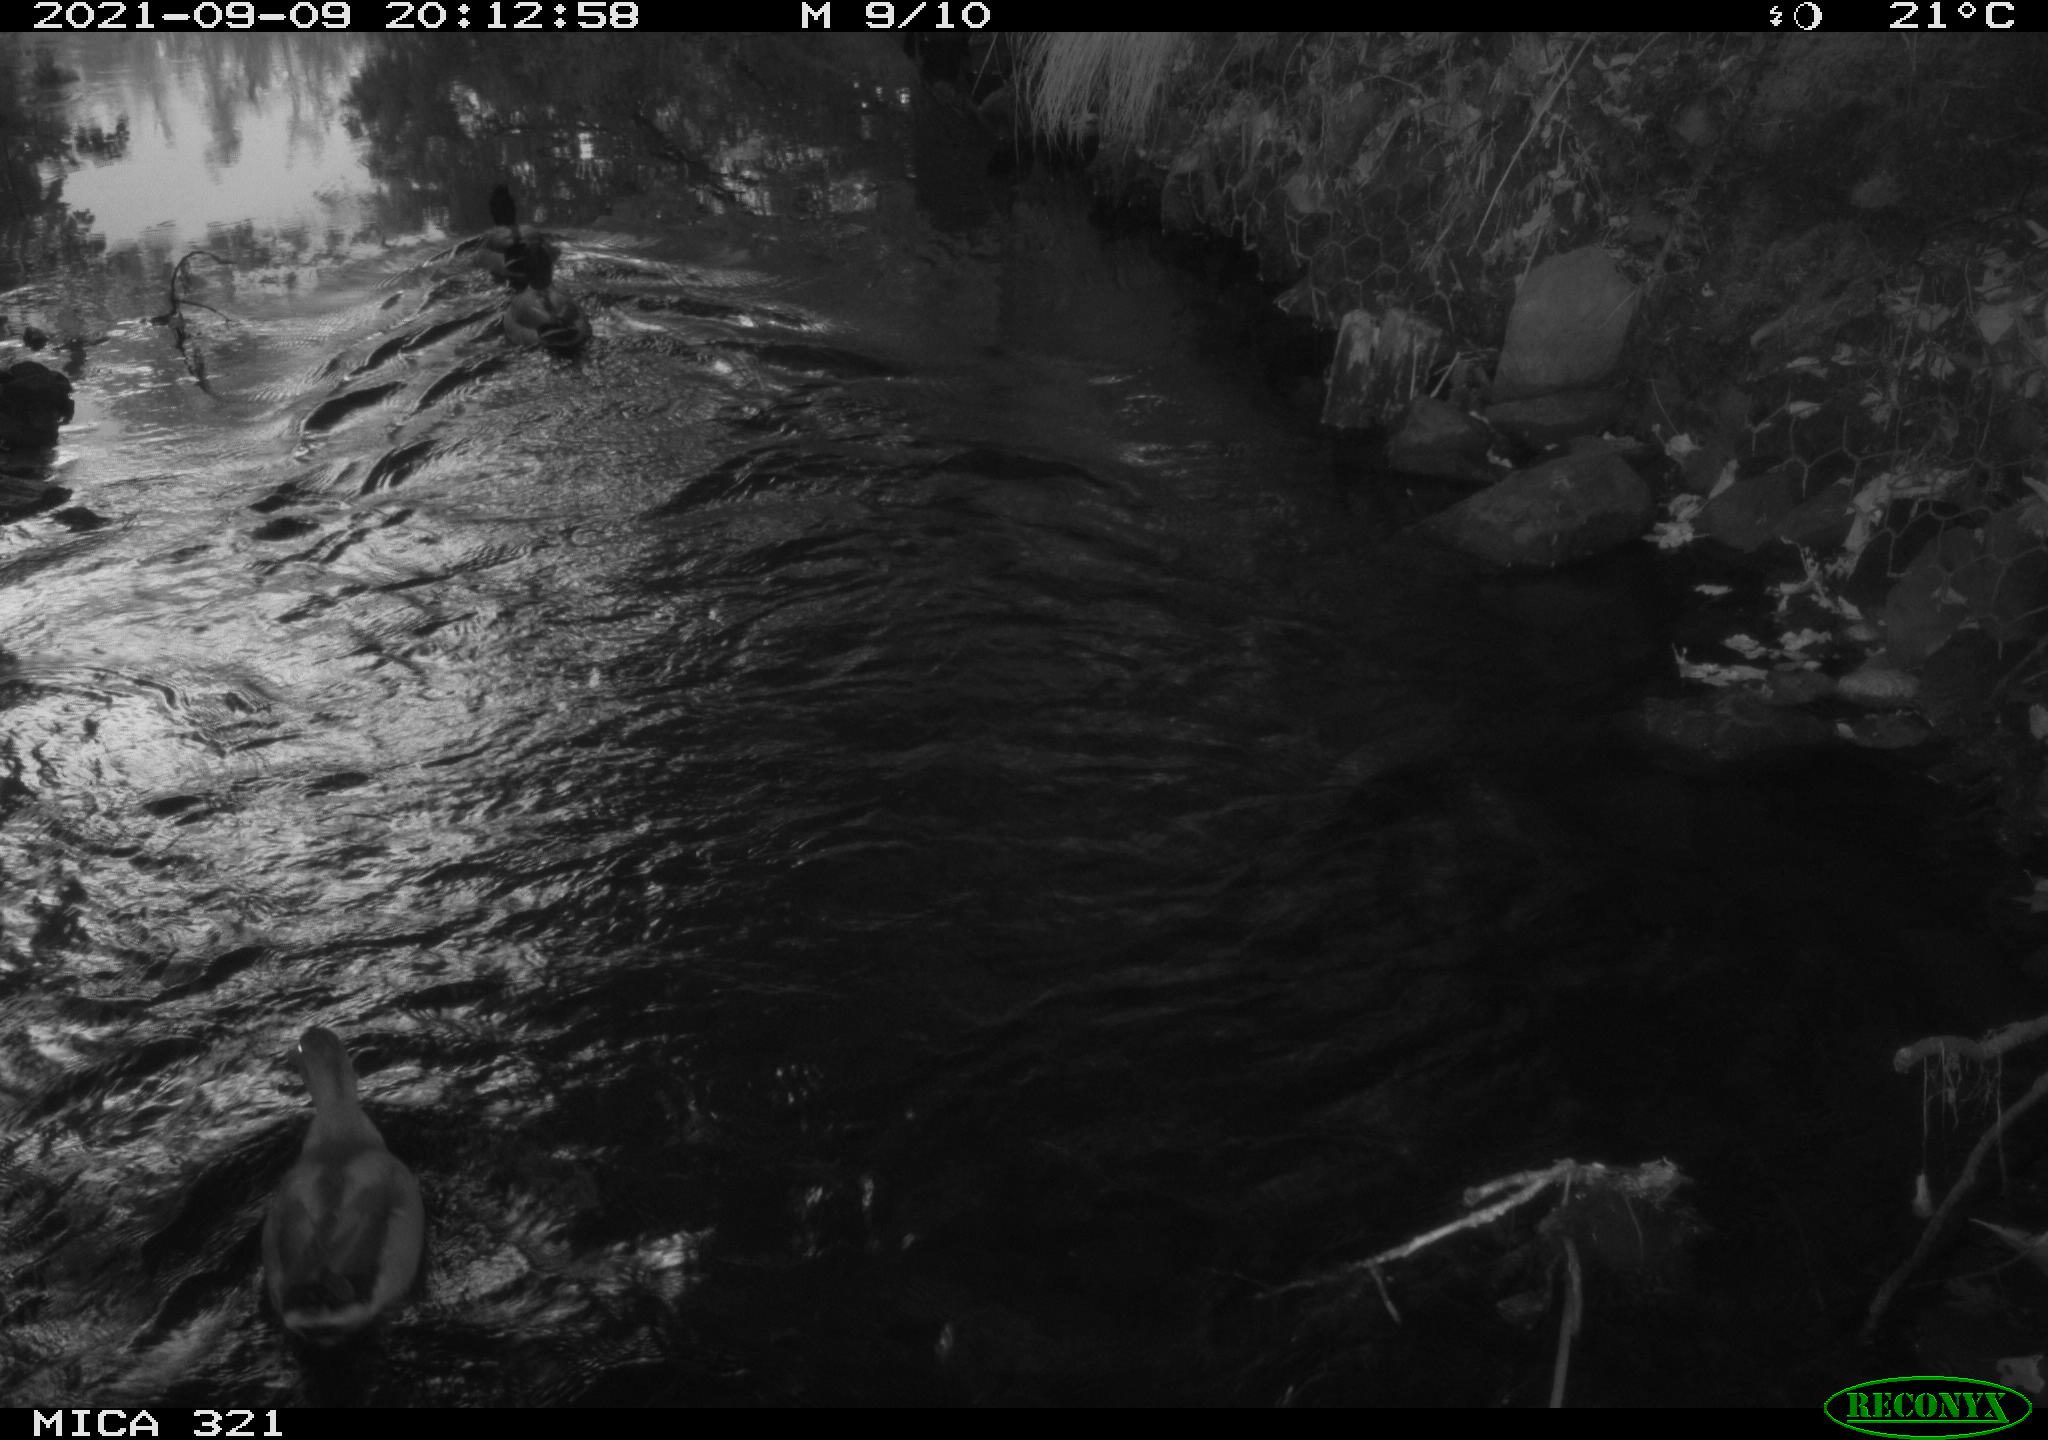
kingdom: Animalia
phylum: Chordata
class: Aves
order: Anseriformes
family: Anatidae
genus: Anas
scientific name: Anas platyrhynchos
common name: Mallard
